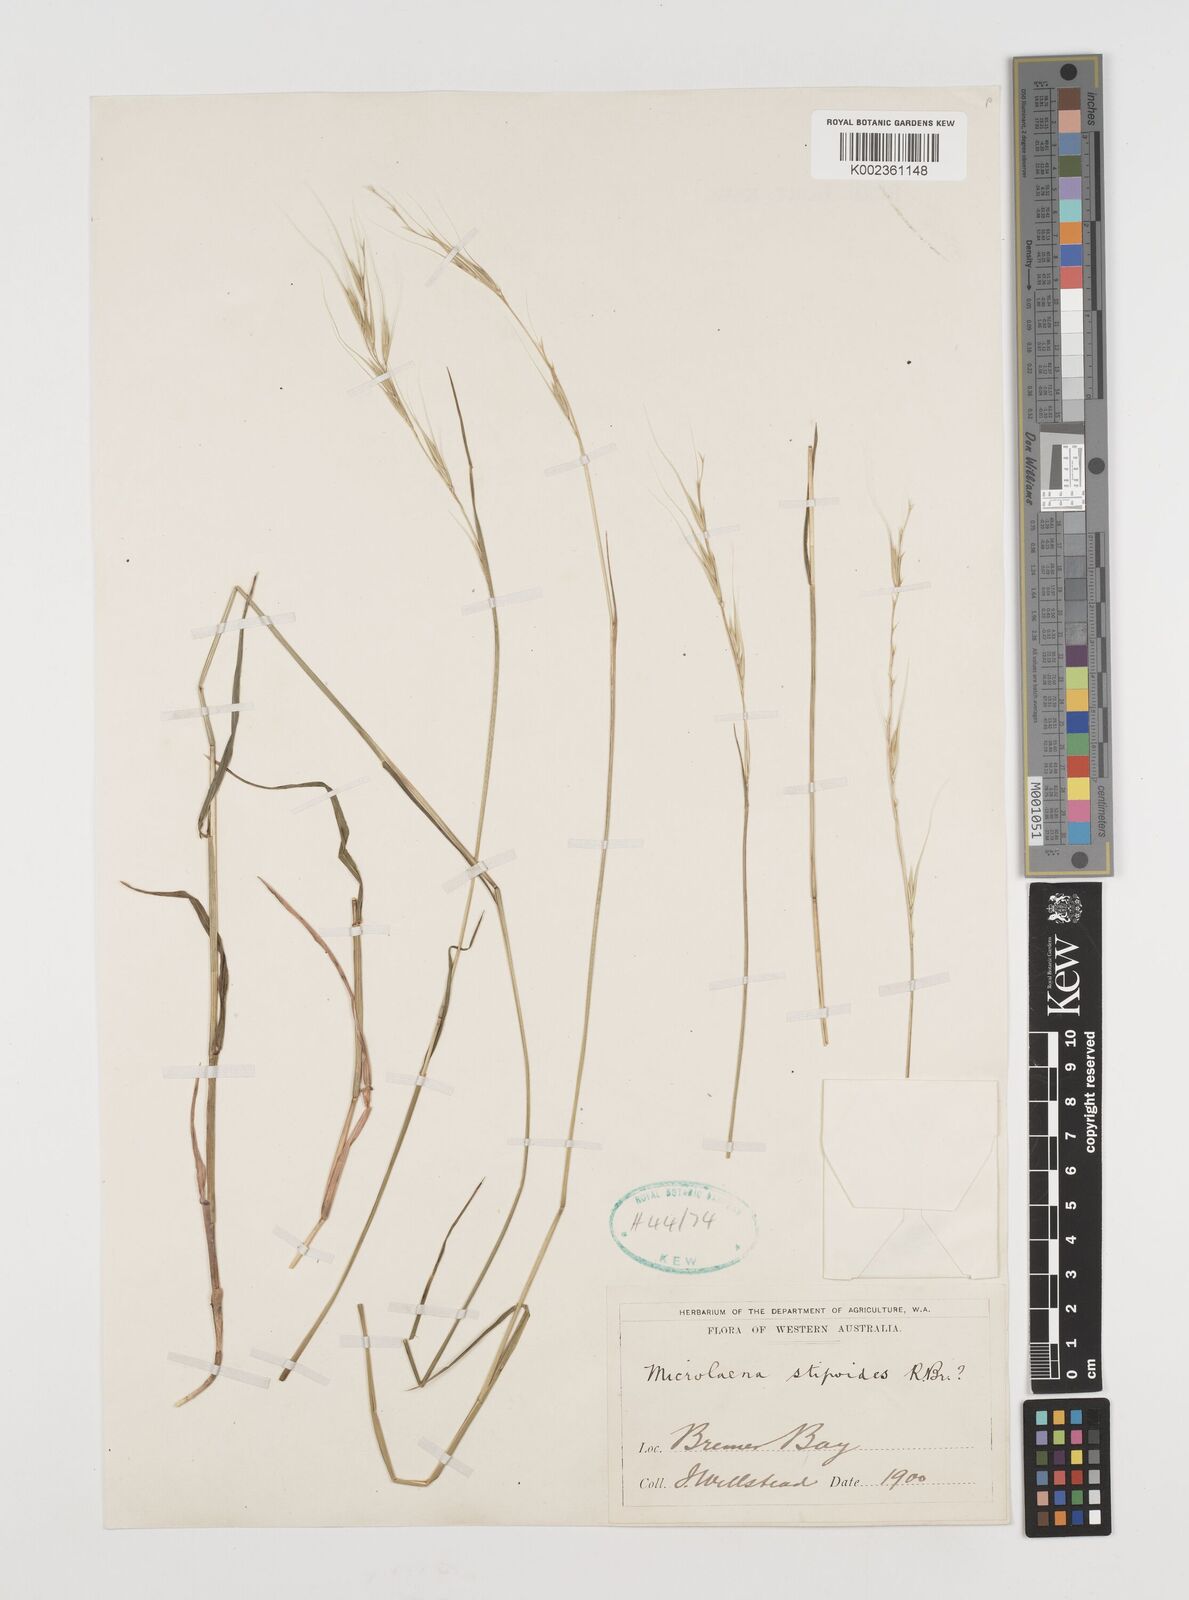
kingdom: Plantae
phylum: Tracheophyta
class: Liliopsida
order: Poales
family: Poaceae
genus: Microlaena
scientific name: Microlaena stipoides
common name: Meadow ricegrass
